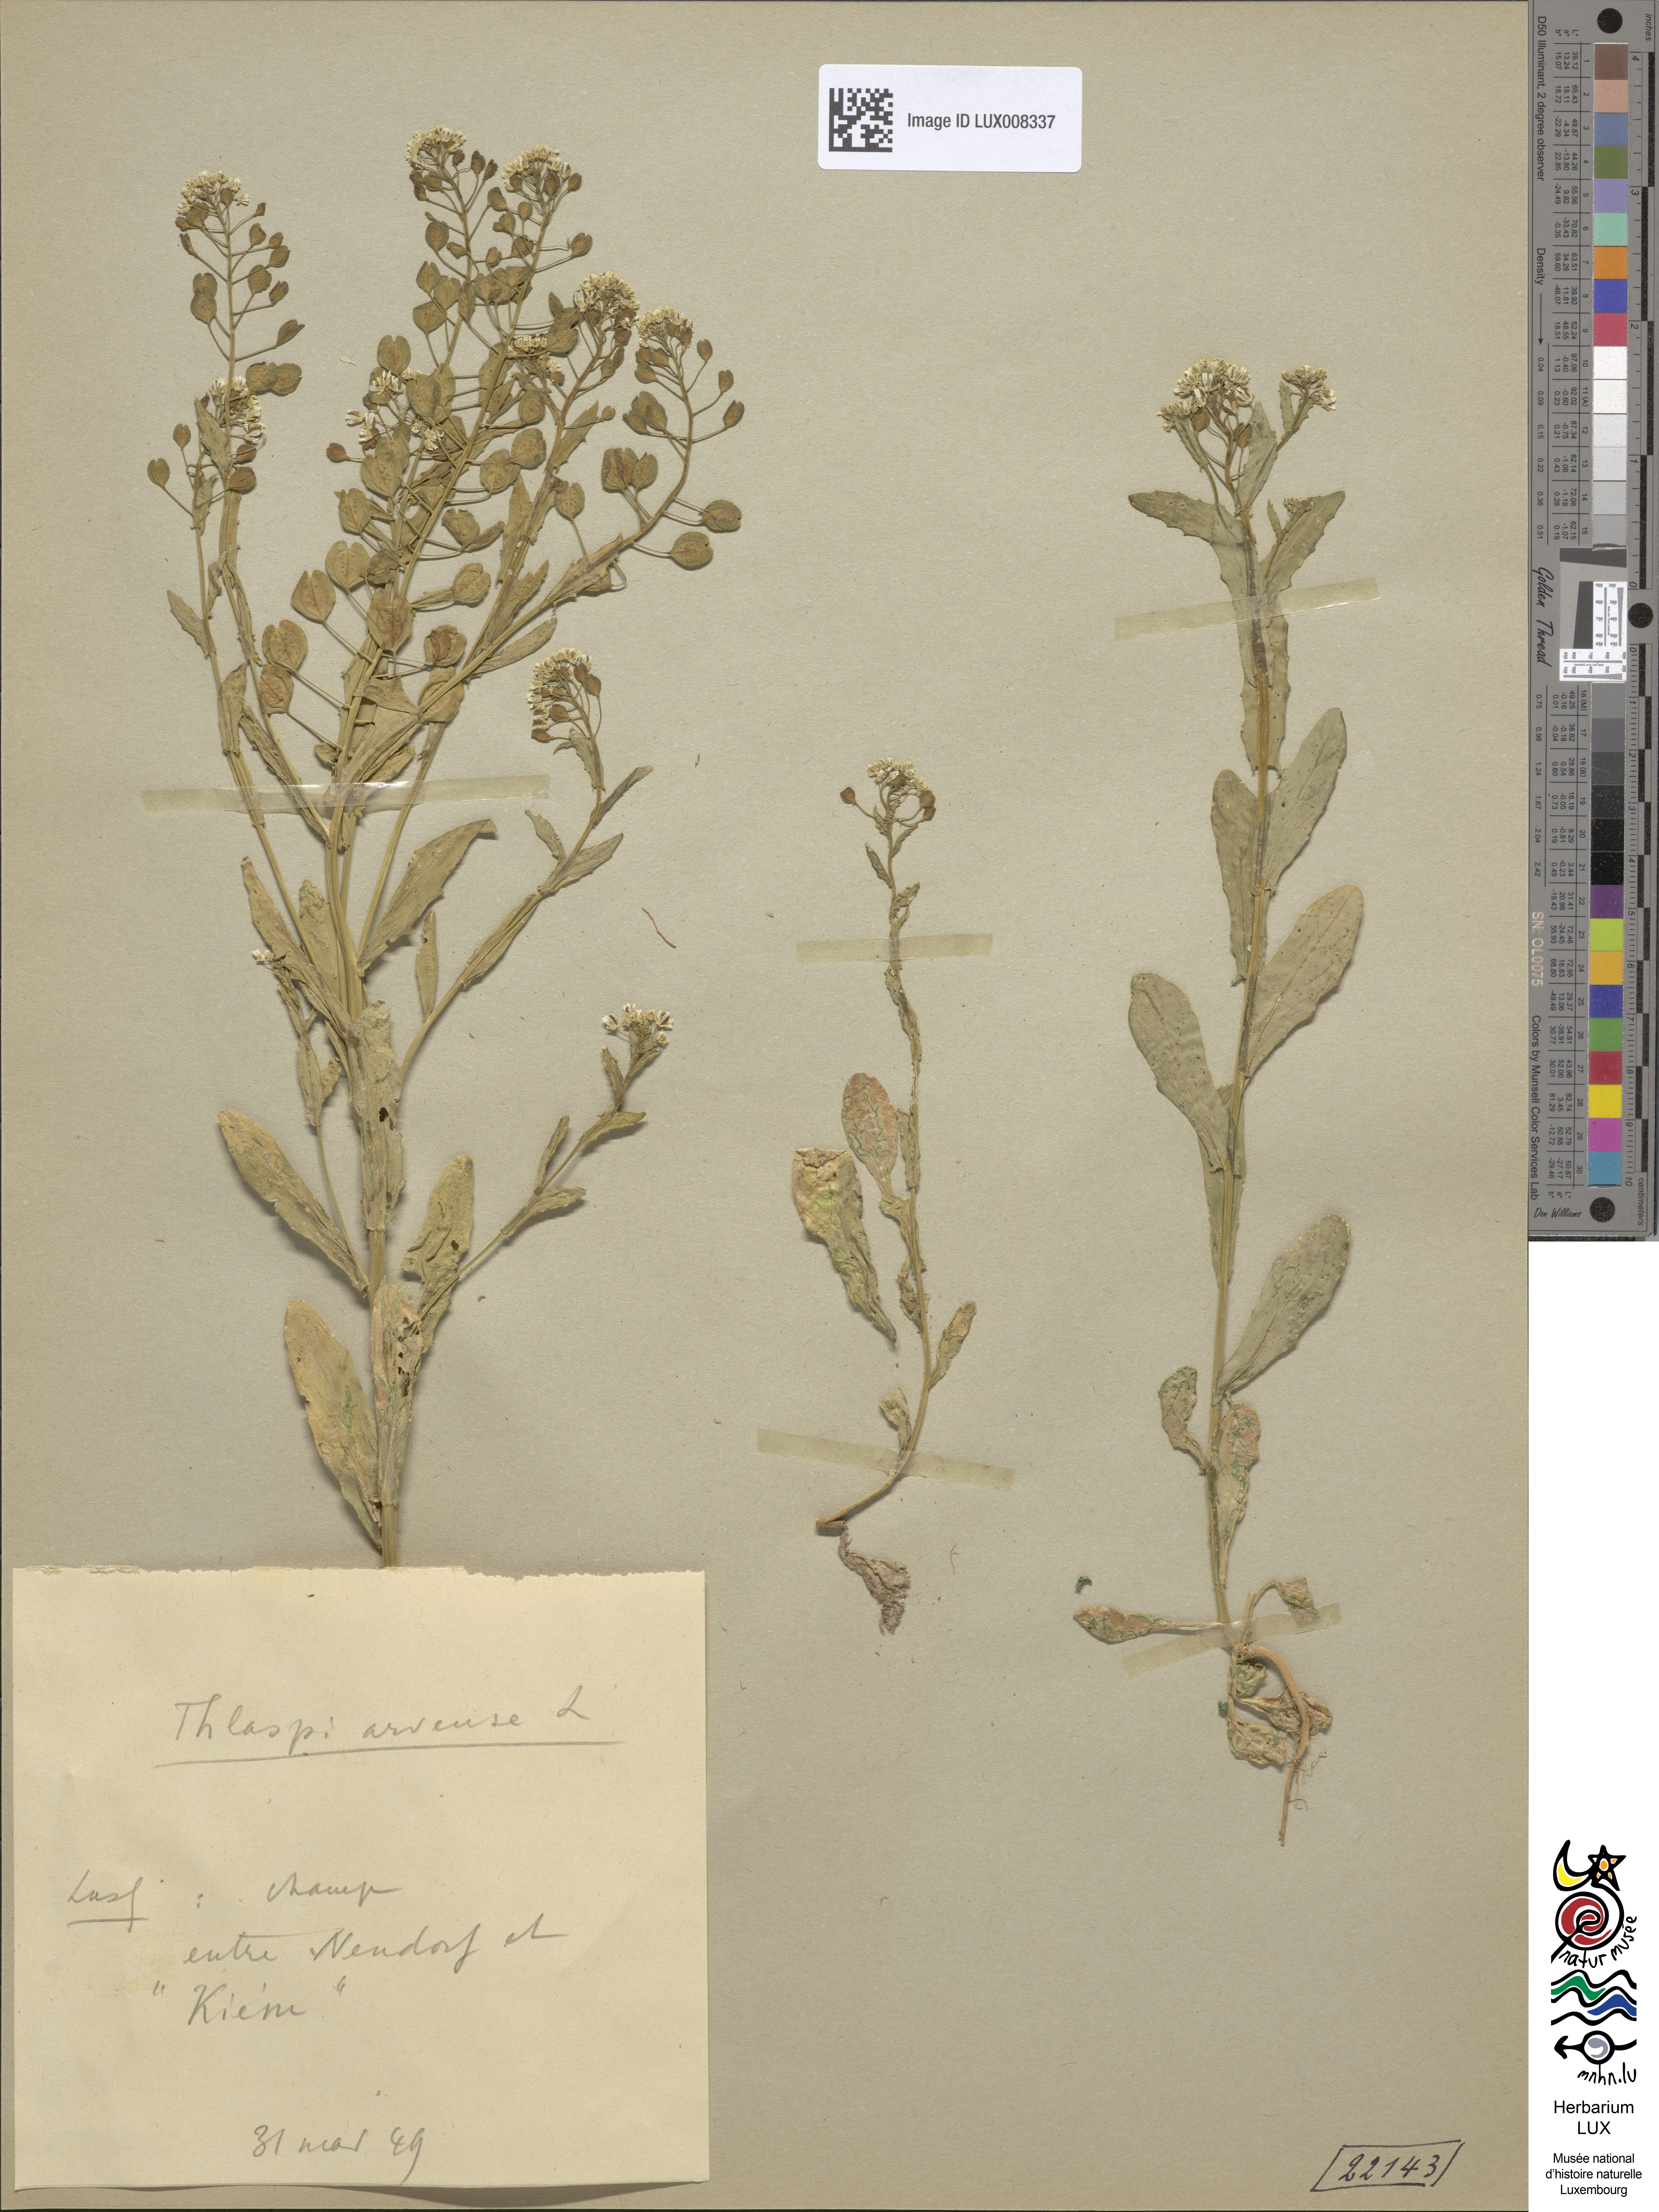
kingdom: Plantae
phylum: Tracheophyta
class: Magnoliopsida
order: Brassicales
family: Brassicaceae
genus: Thlaspi
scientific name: Thlaspi arvense
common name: Field pennycress
